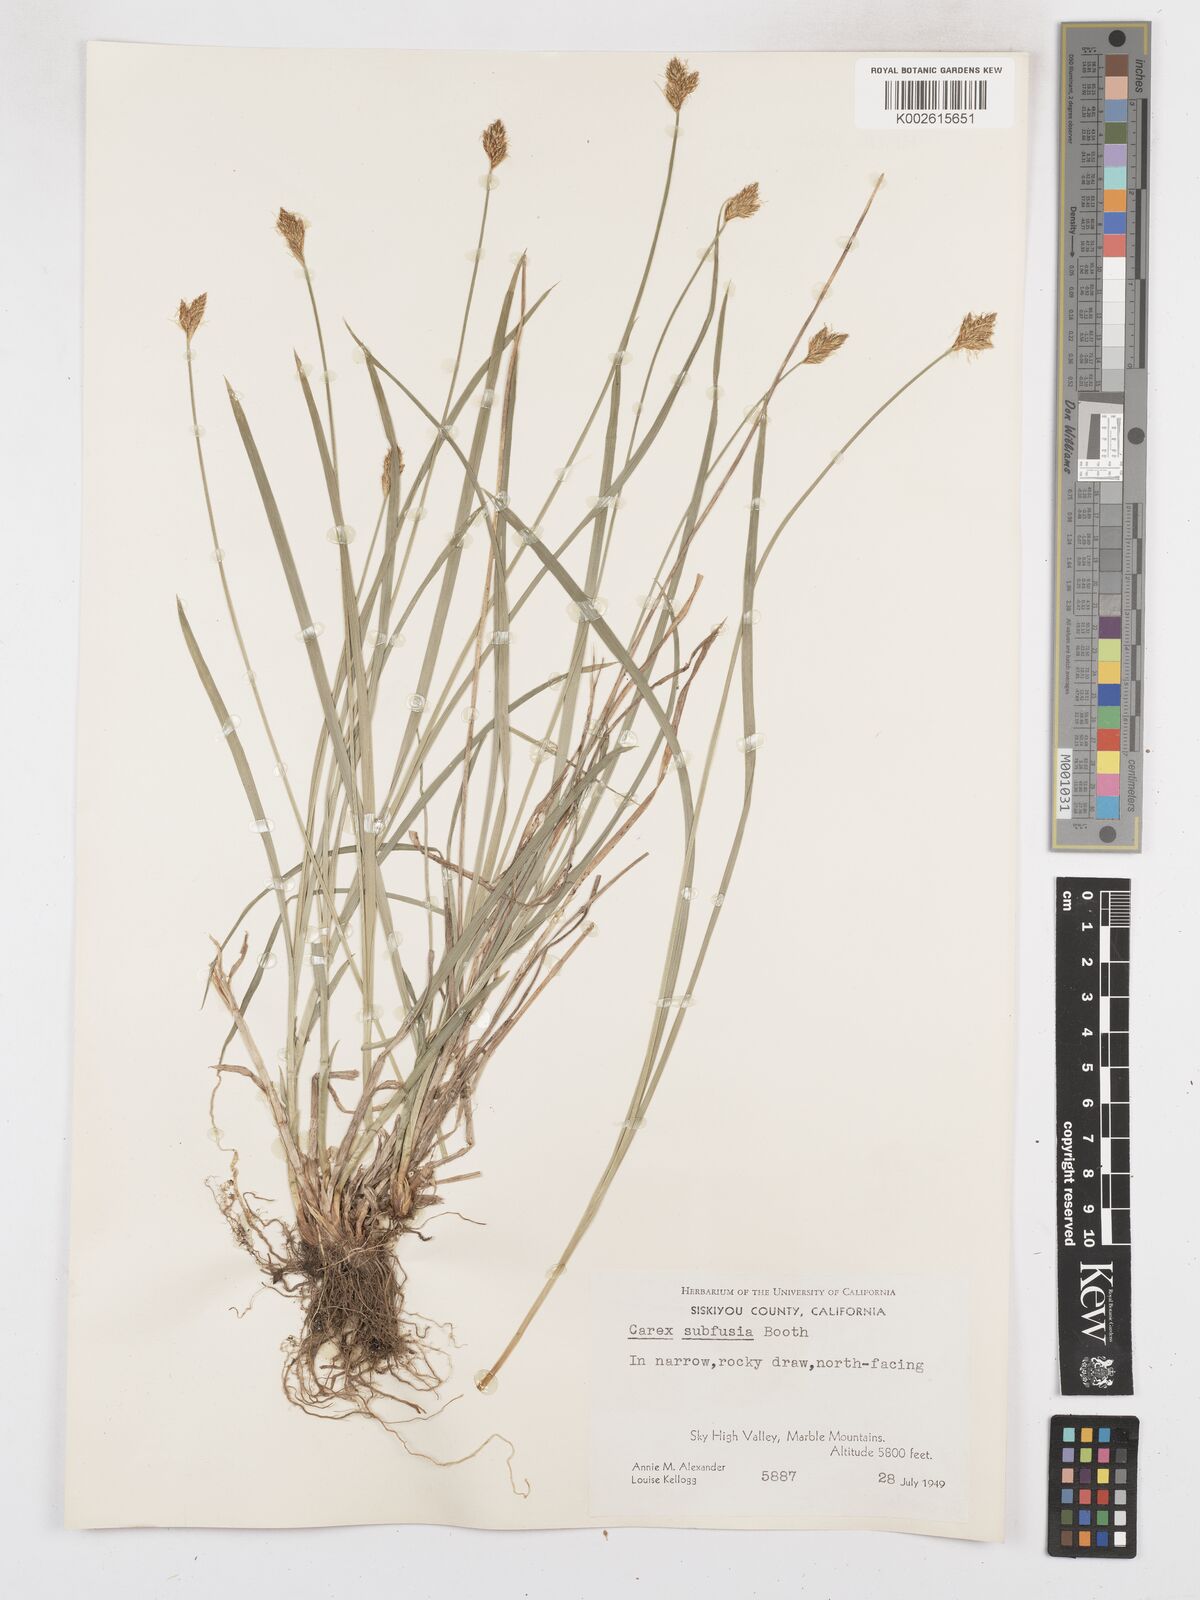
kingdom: Plantae
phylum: Tracheophyta
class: Liliopsida
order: Poales
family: Cyperaceae
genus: Carex
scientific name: Carex subfusca
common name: Brown sedge
